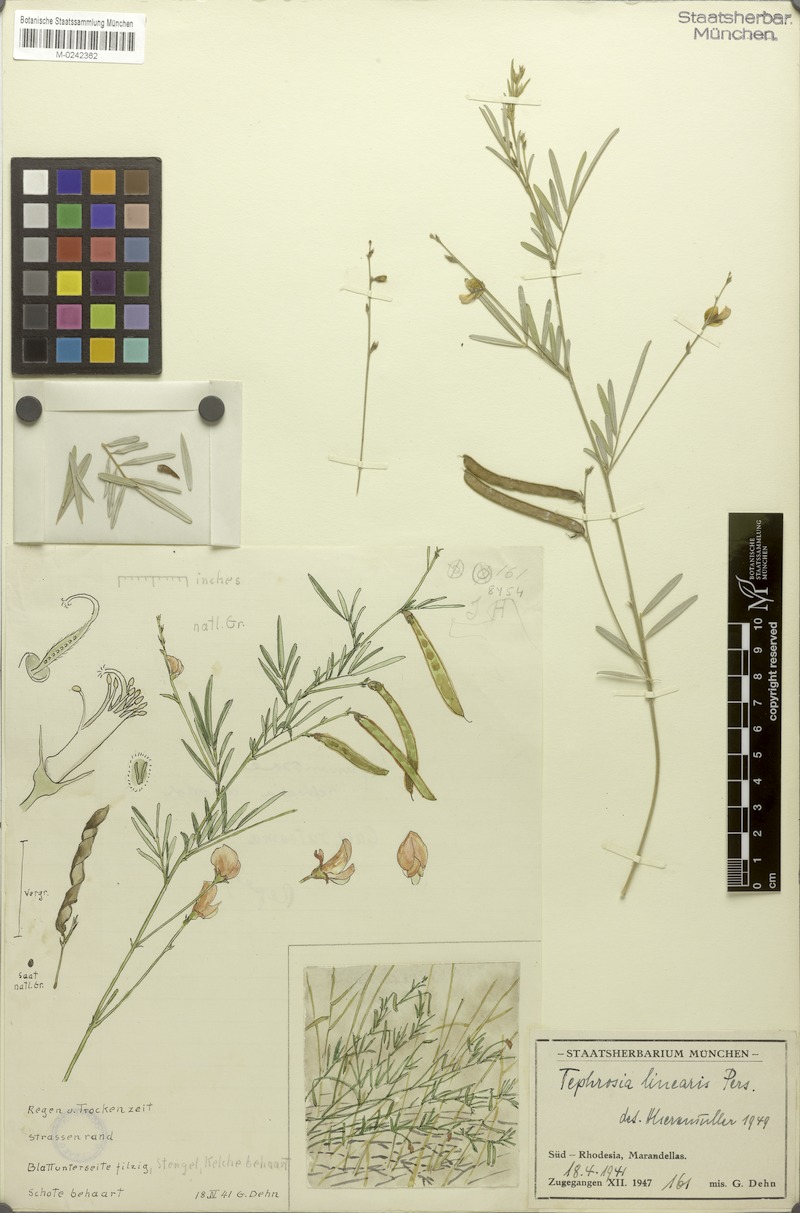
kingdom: Plantae
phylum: Tracheophyta
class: Magnoliopsida
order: Fabales
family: Fabaceae
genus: Tephrosia
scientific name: Tephrosia linearis
